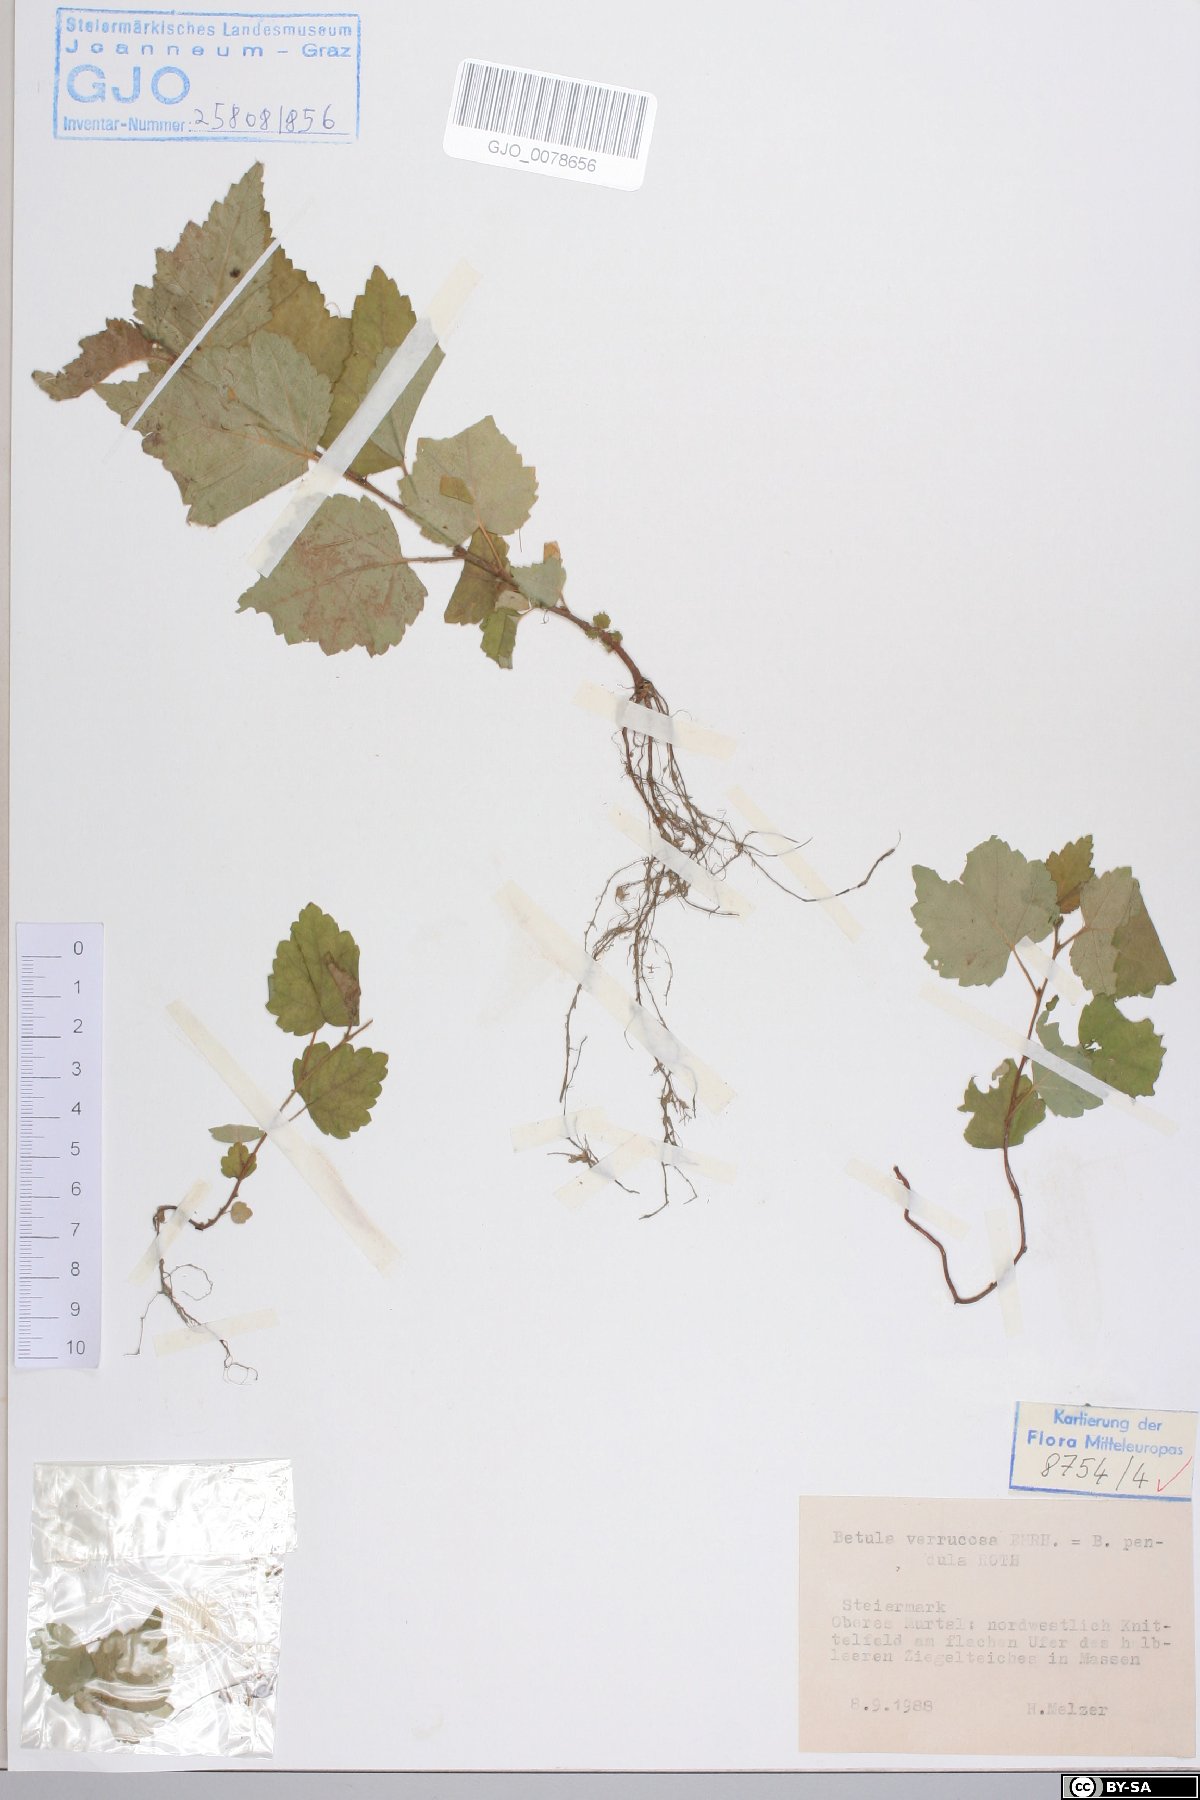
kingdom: Plantae
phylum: Tracheophyta
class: Magnoliopsida
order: Fagales
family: Betulaceae
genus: Betula
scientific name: Betula pendula
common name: Silver birch
